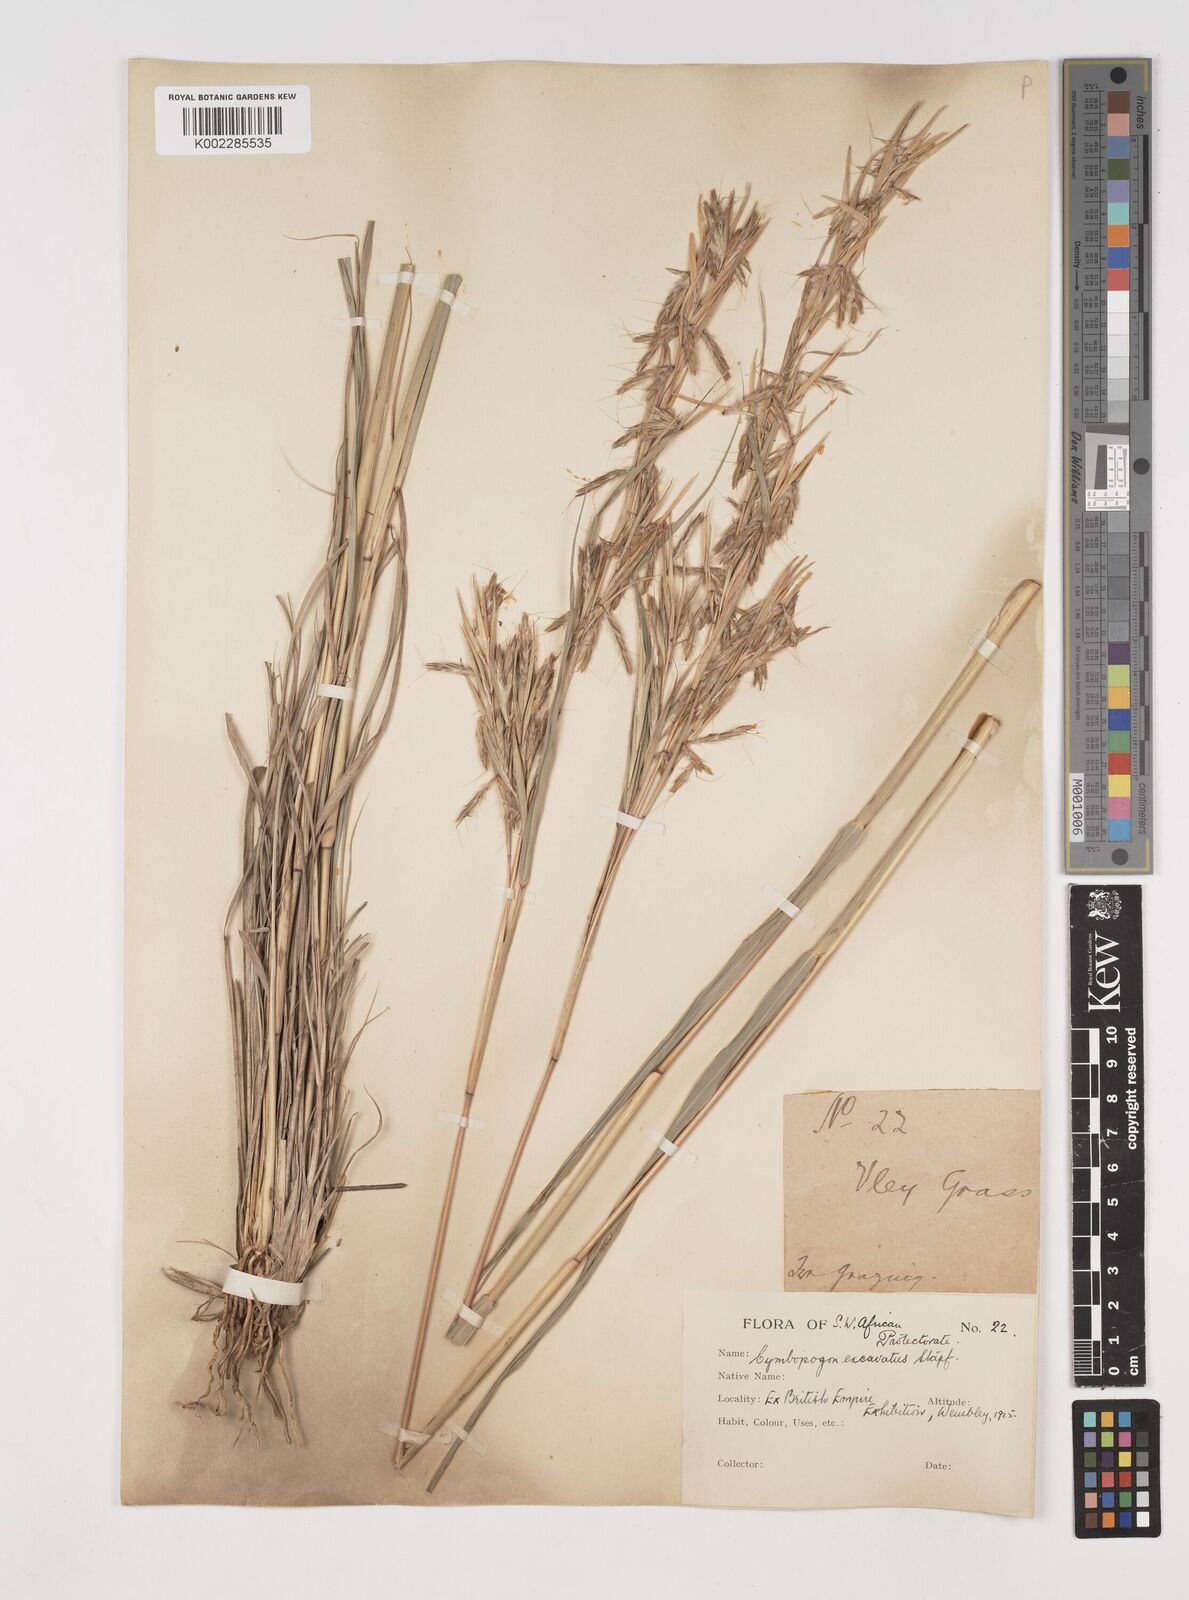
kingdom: Plantae
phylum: Tracheophyta
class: Liliopsida
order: Poales
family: Poaceae
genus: Cymbopogon
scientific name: Cymbopogon caesius
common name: Kachi grass
